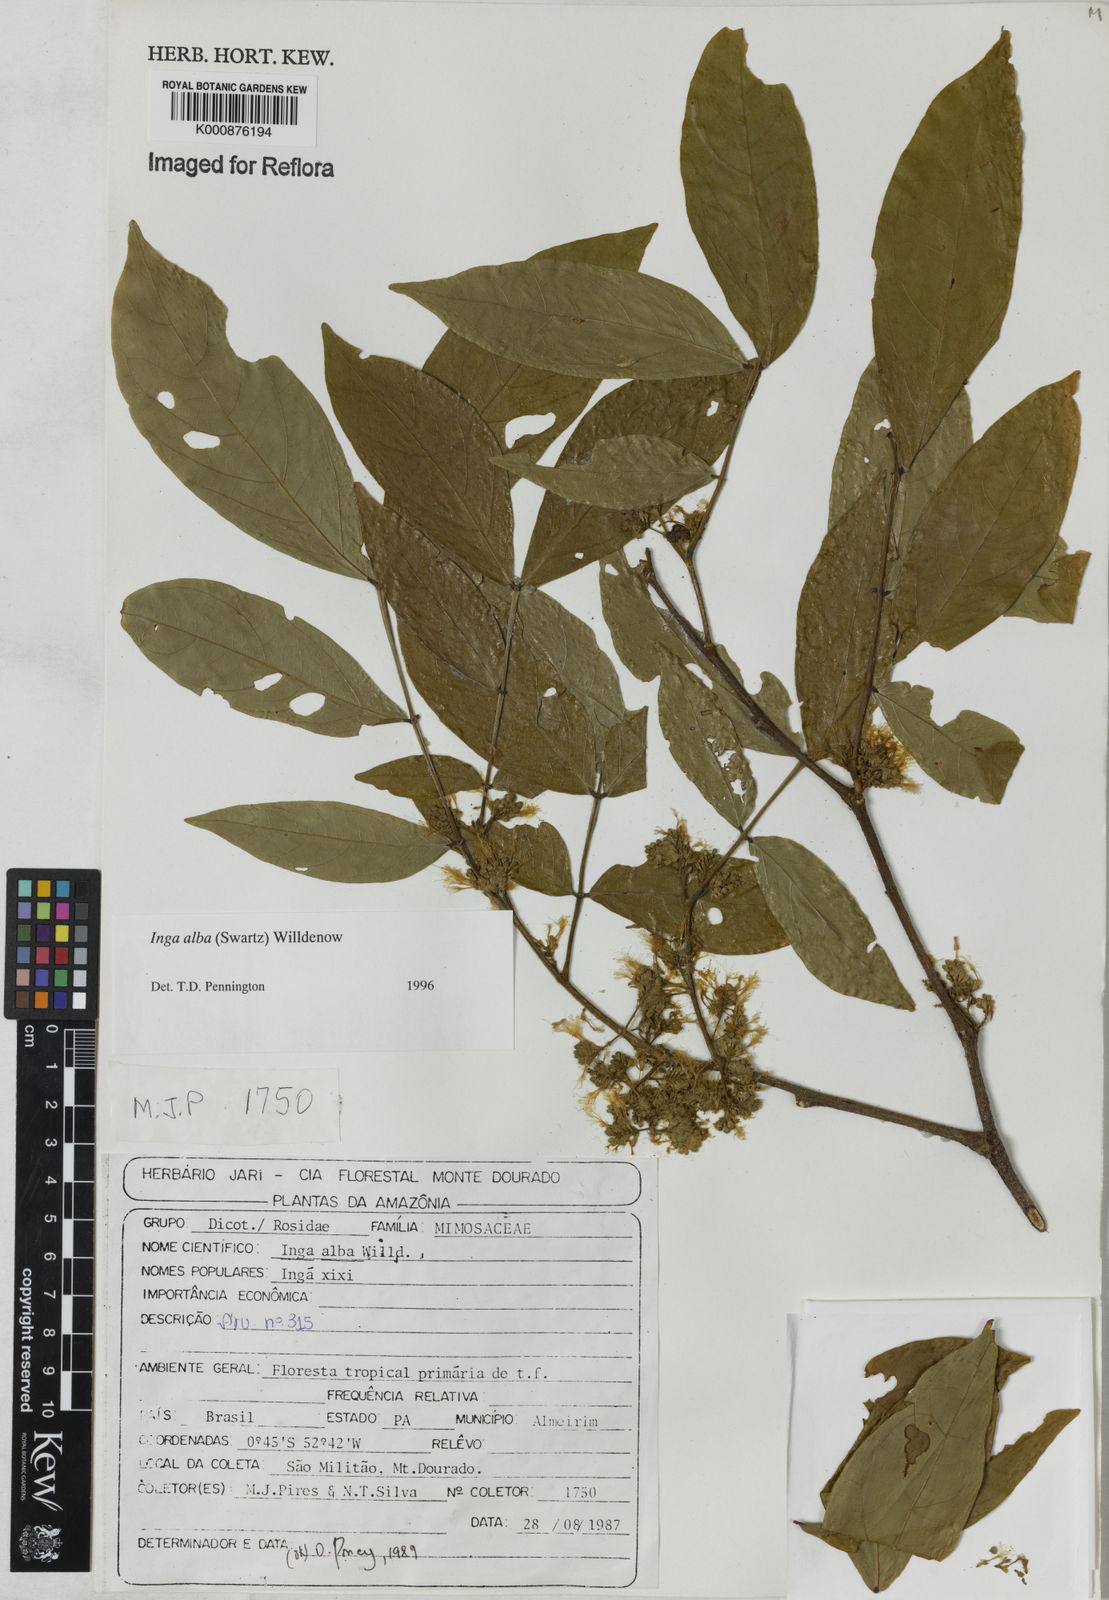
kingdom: Plantae
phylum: Tracheophyta
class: Magnoliopsida
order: Fabales
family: Fabaceae
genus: Inga
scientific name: Inga alba
